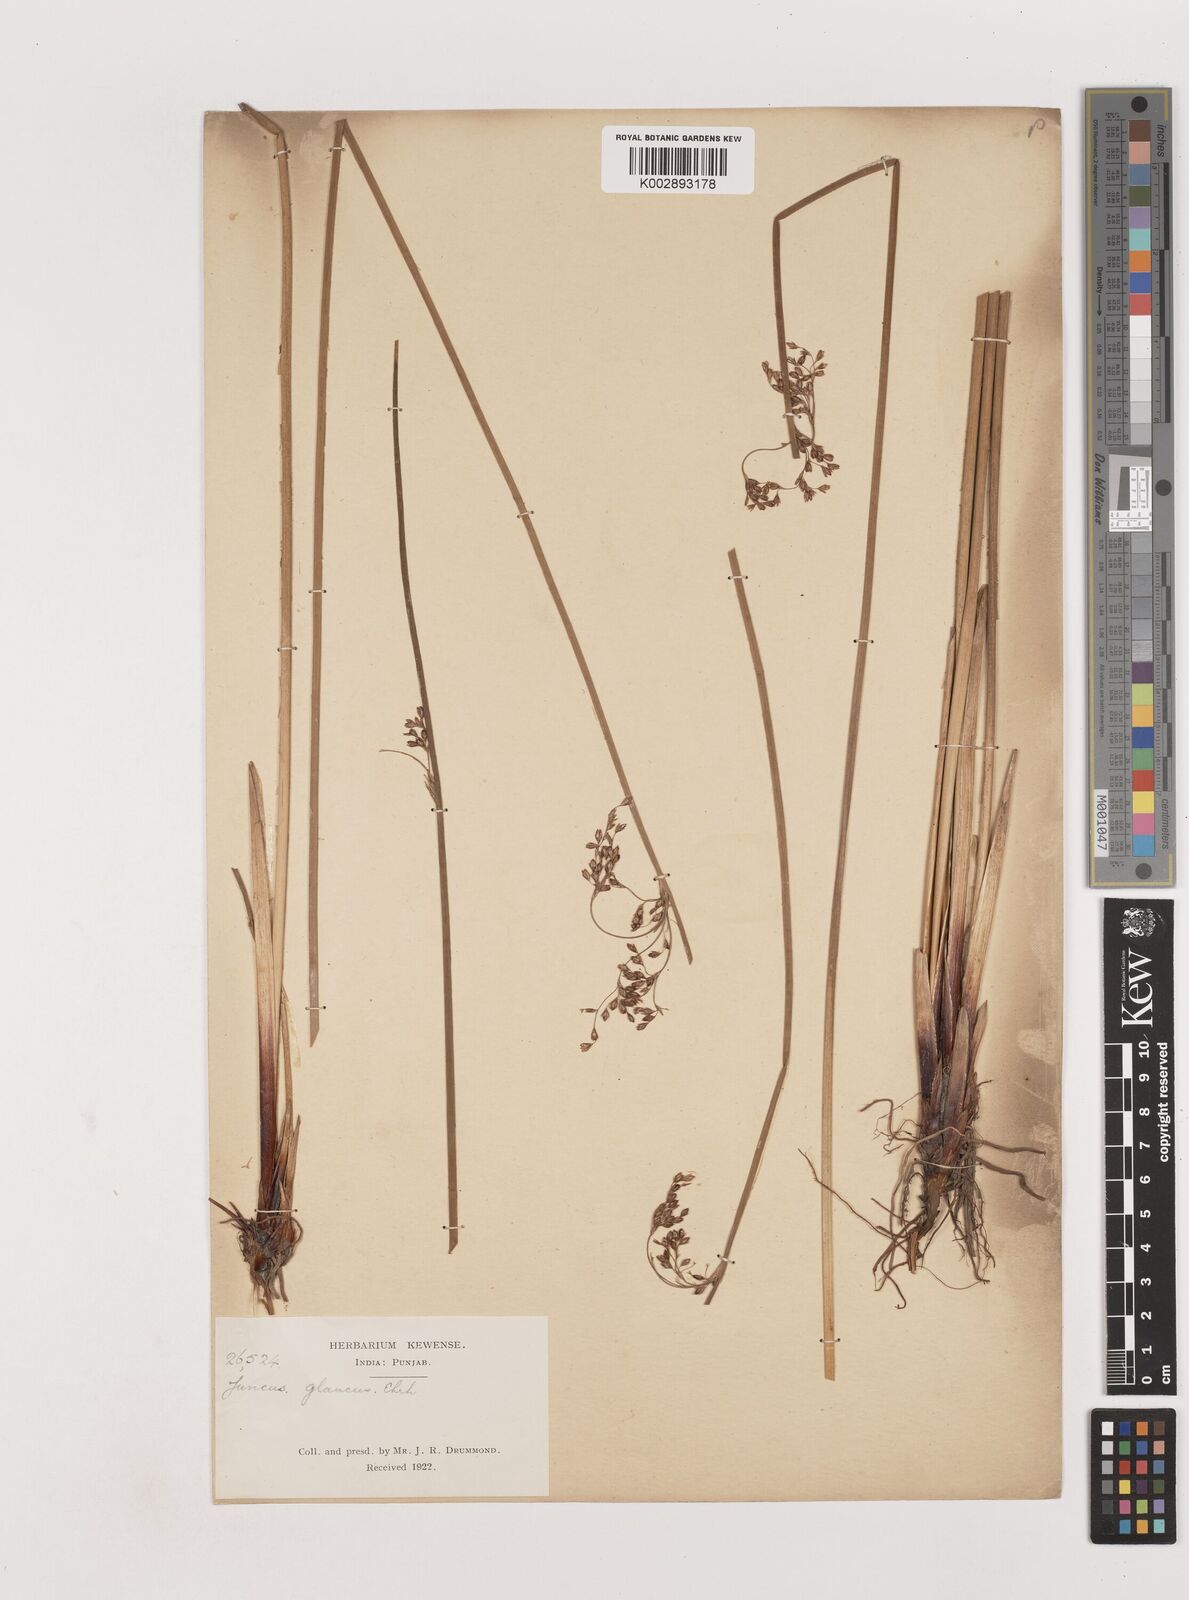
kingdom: Plantae
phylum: Tracheophyta
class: Liliopsida
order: Poales
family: Juncaceae
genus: Juncus
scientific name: Juncus inflexus
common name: Hard rush
